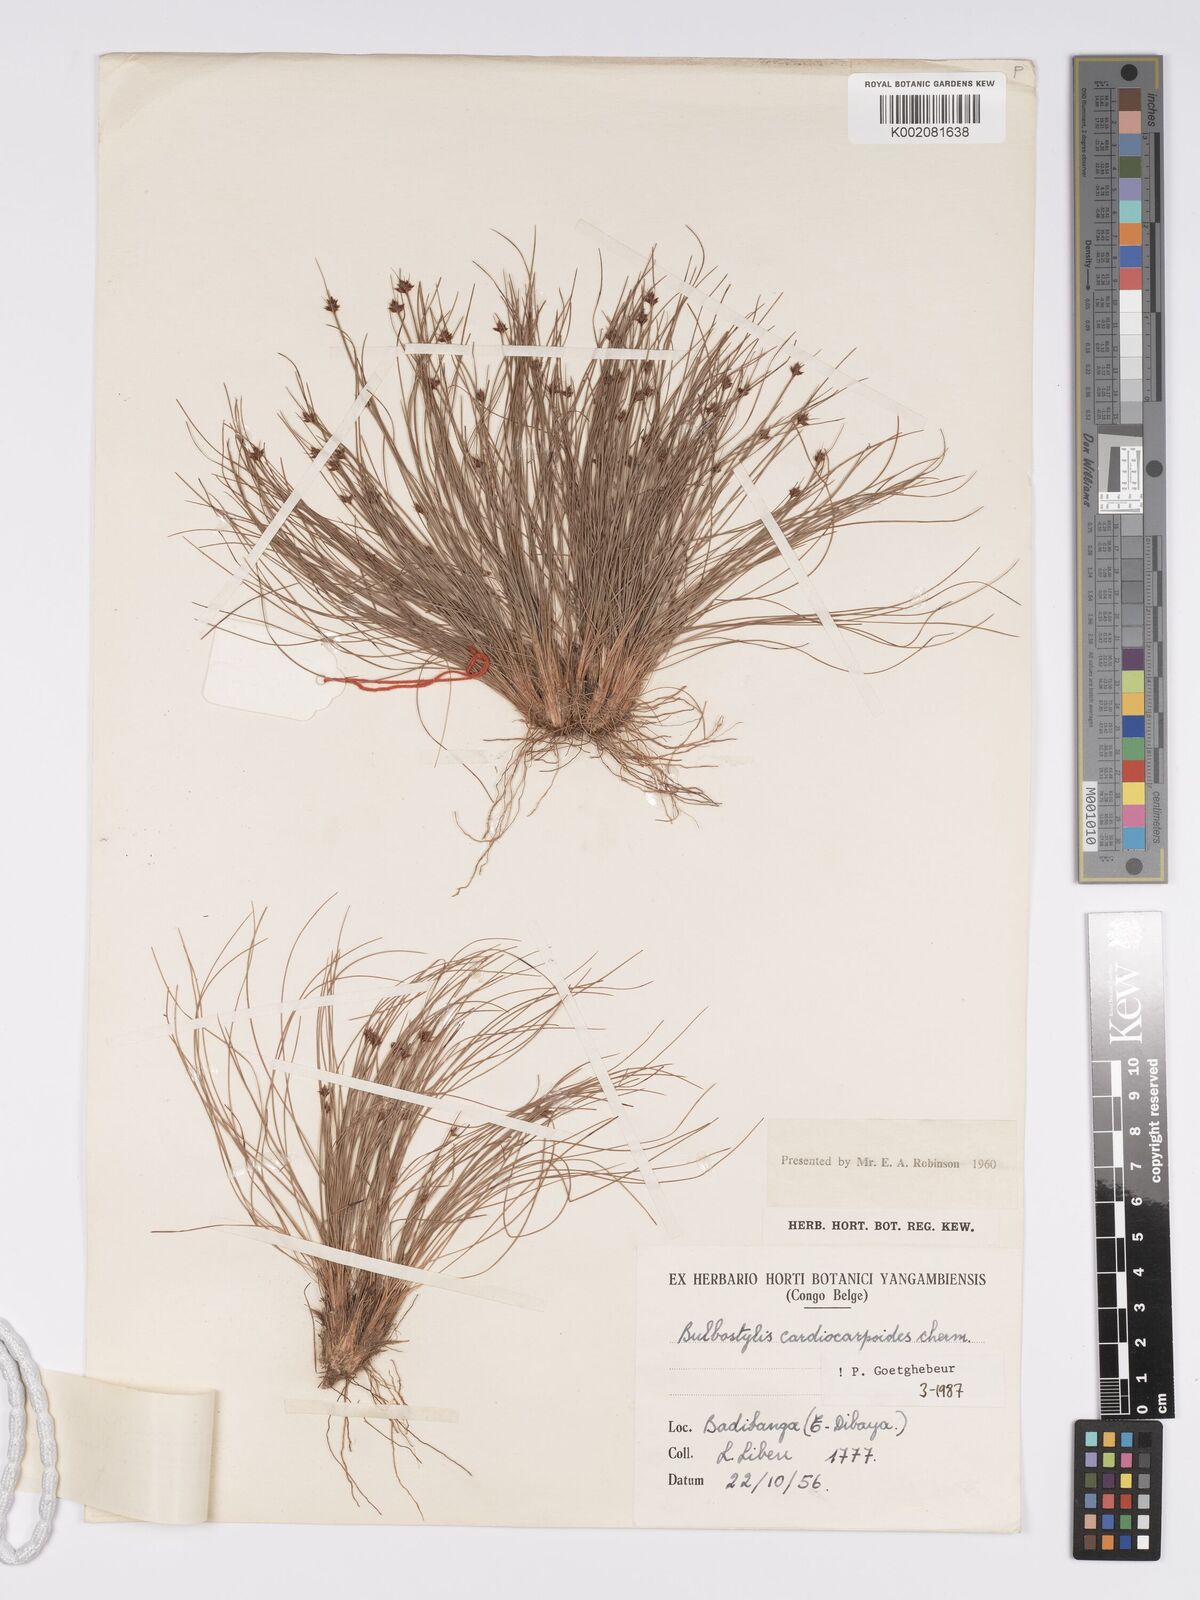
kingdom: Plantae
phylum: Tracheophyta
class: Liliopsida
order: Poales
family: Cyperaceae
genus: Bulbostylis
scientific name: Bulbostylis cardiocarpoides
